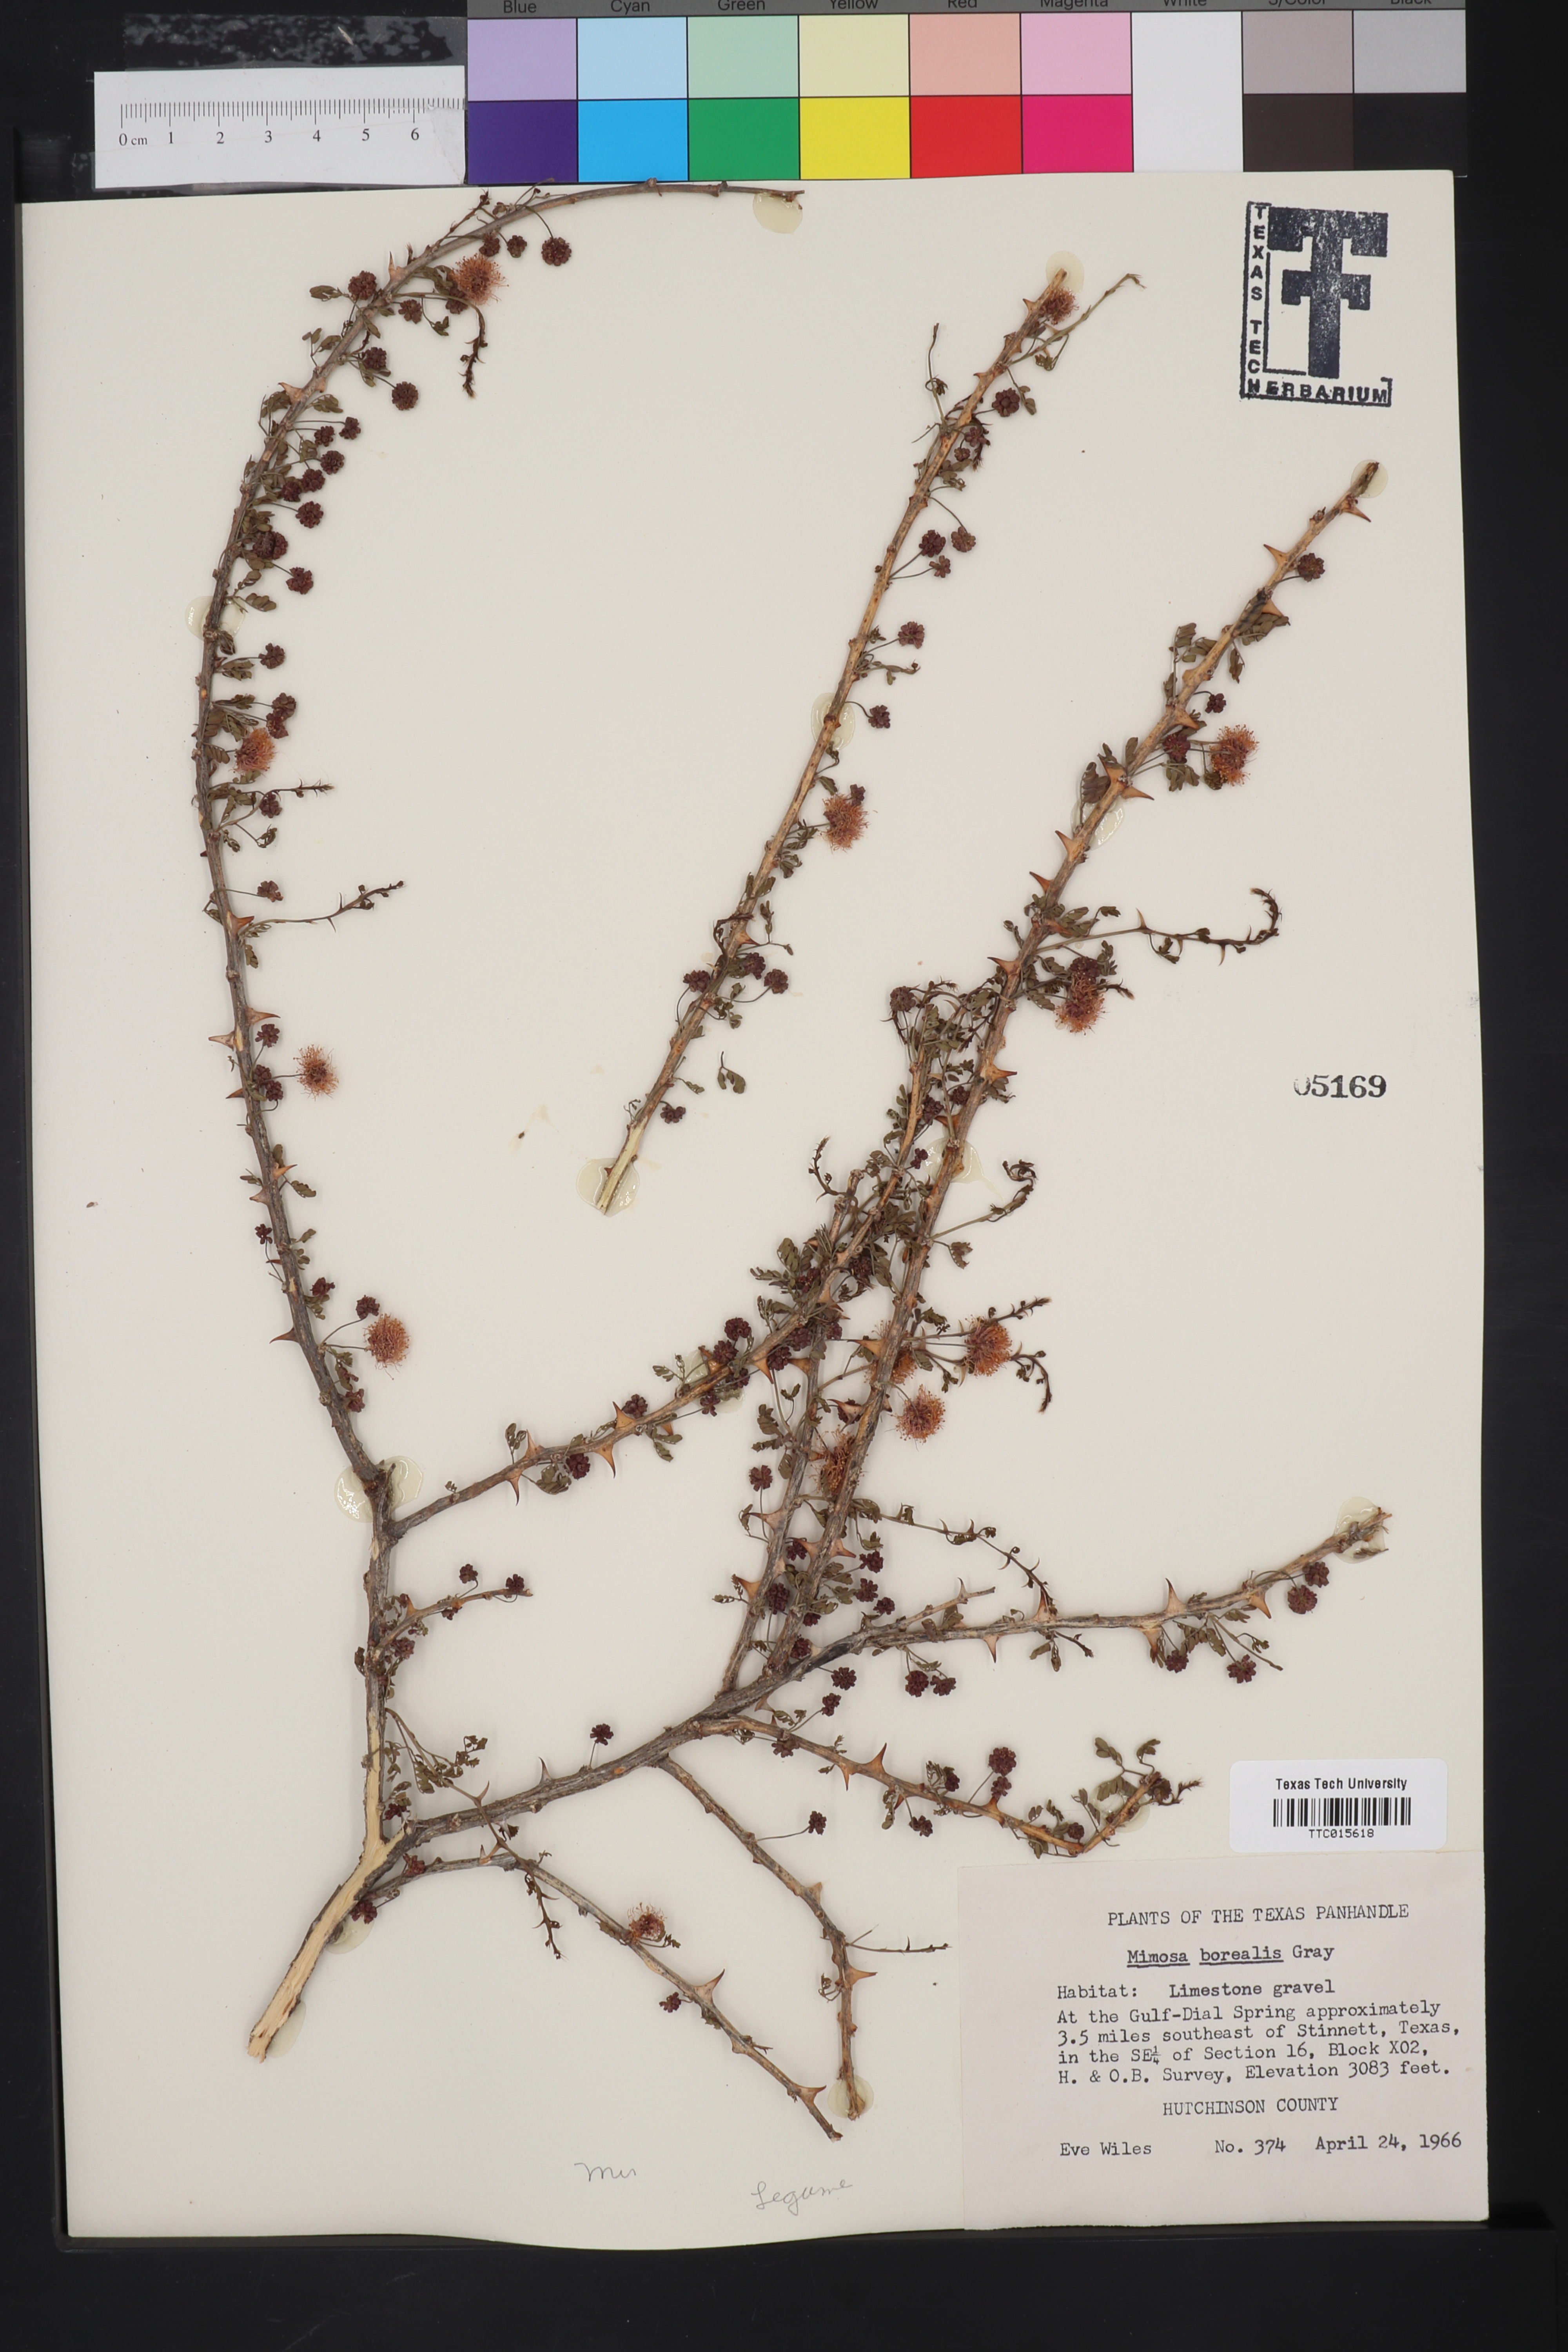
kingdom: Plantae
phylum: Tracheophyta
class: Magnoliopsida
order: Fabales
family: Fabaceae
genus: Mimosa
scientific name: Mimosa borealis
